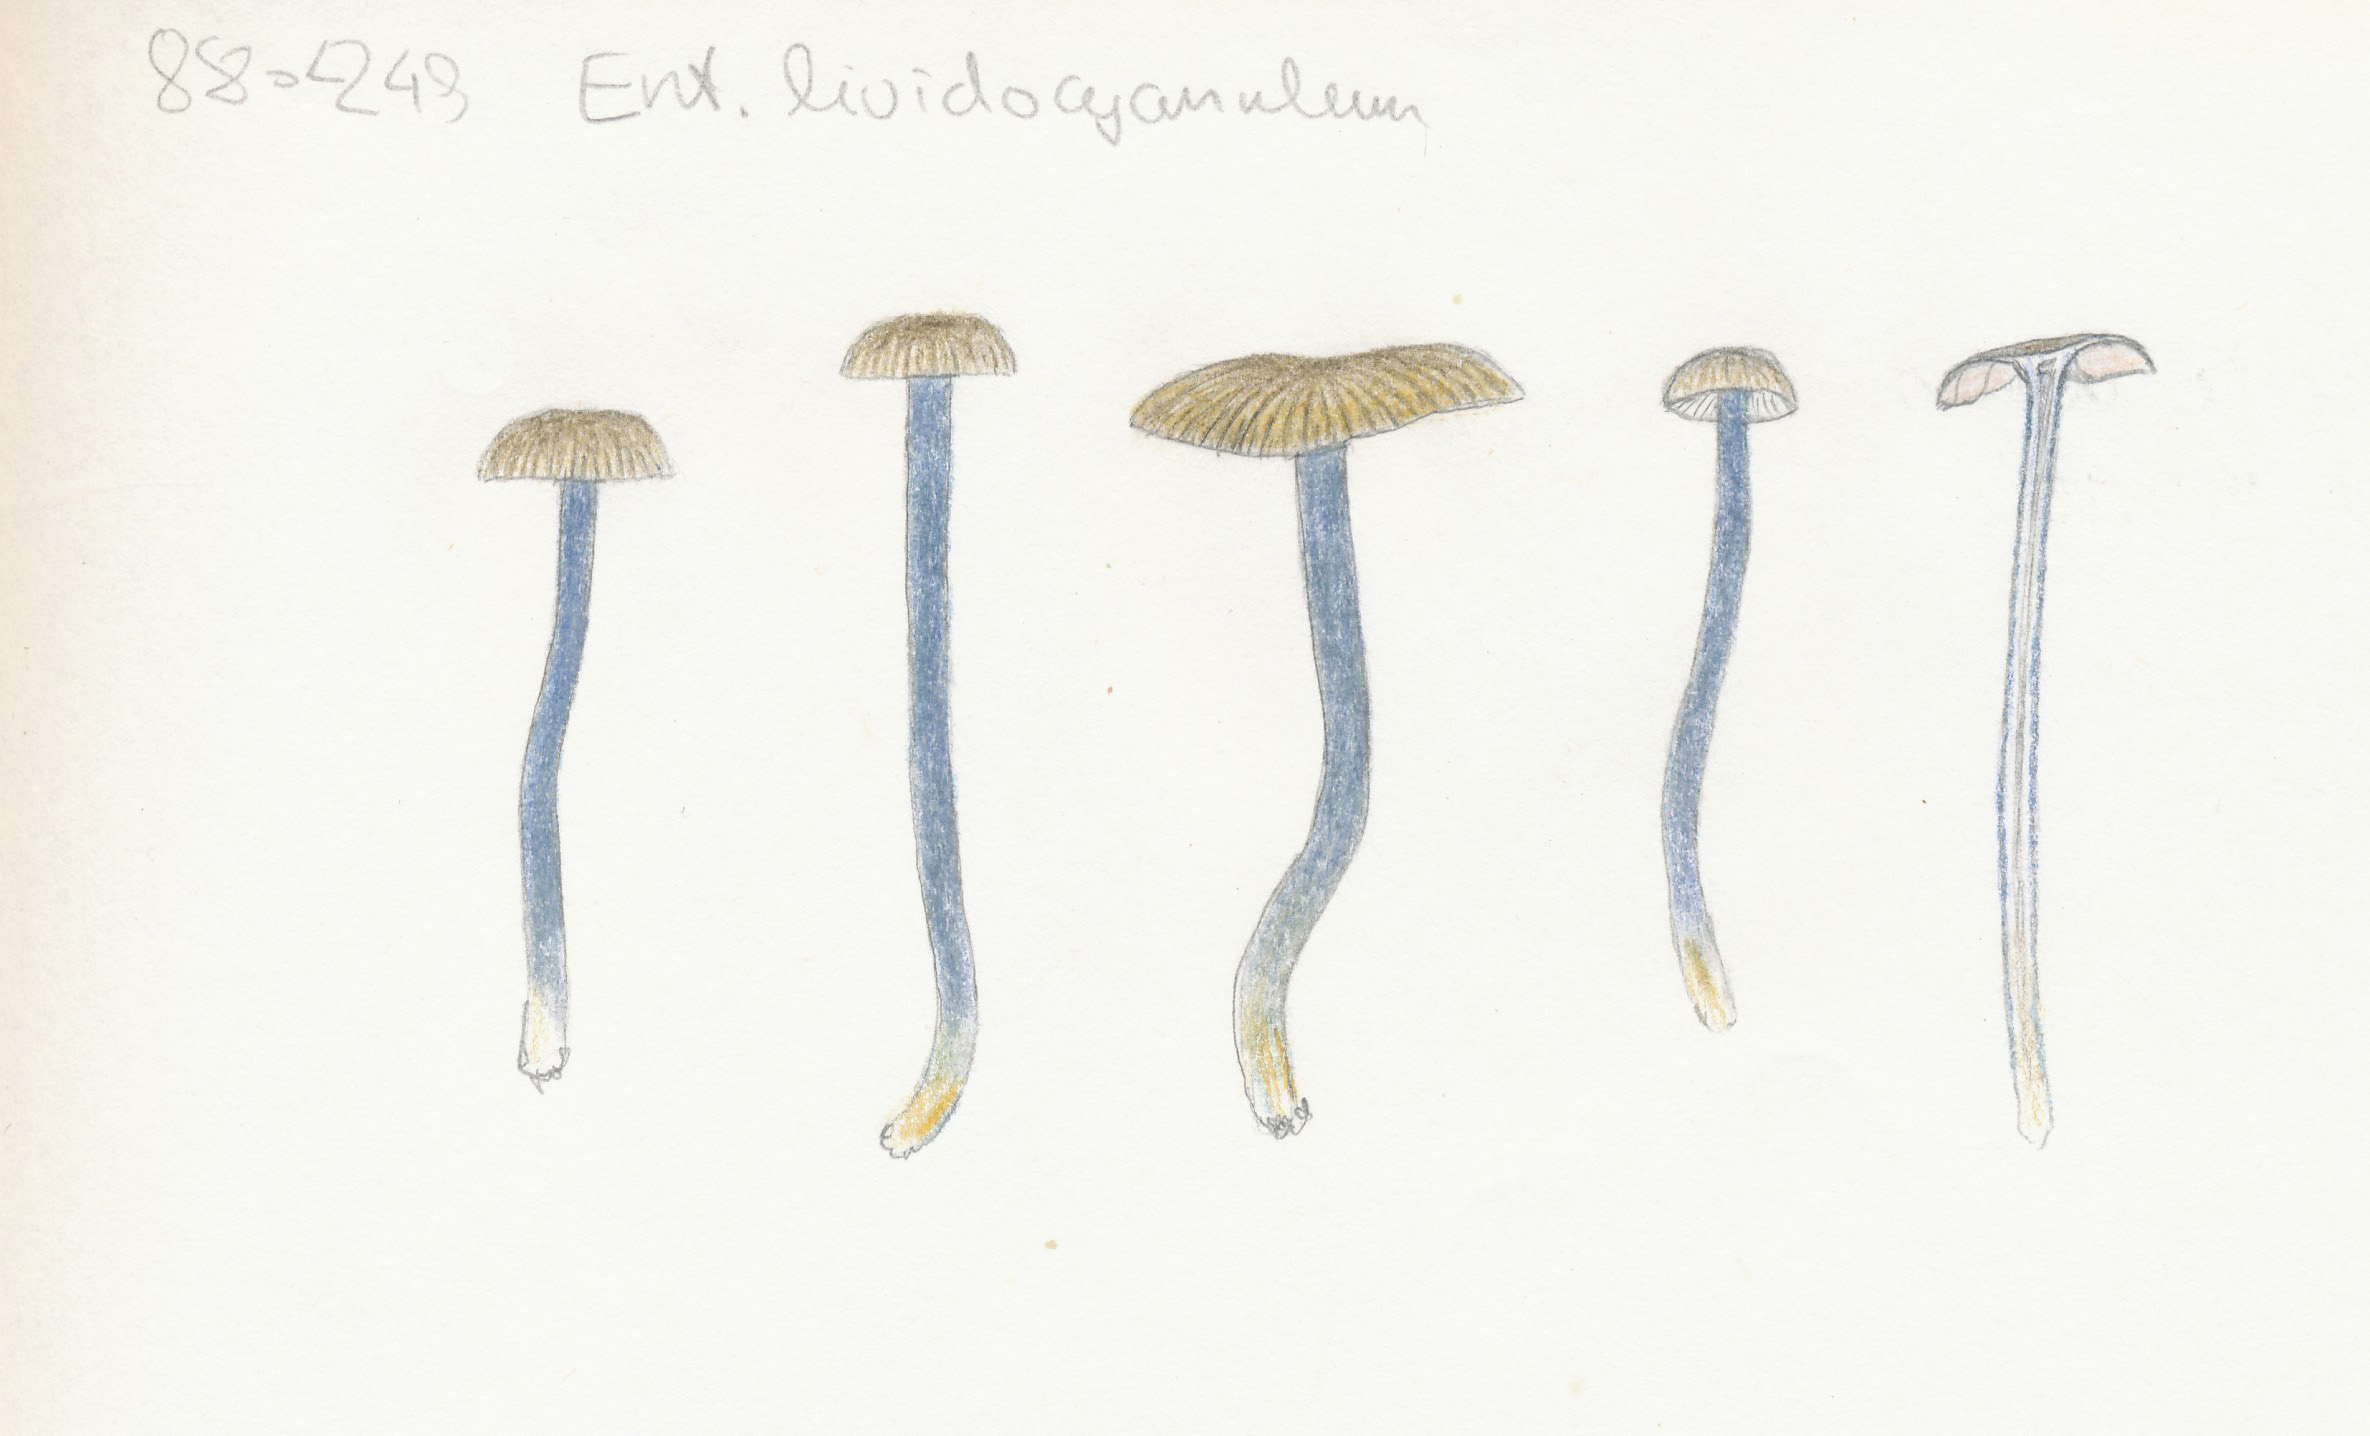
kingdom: Fungi
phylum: Basidiomycota
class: Agaricomycetes
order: Agaricales
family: Entolomataceae
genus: Entoloma
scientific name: Entoloma lividocyanulum
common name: mørkøjet rødblad
